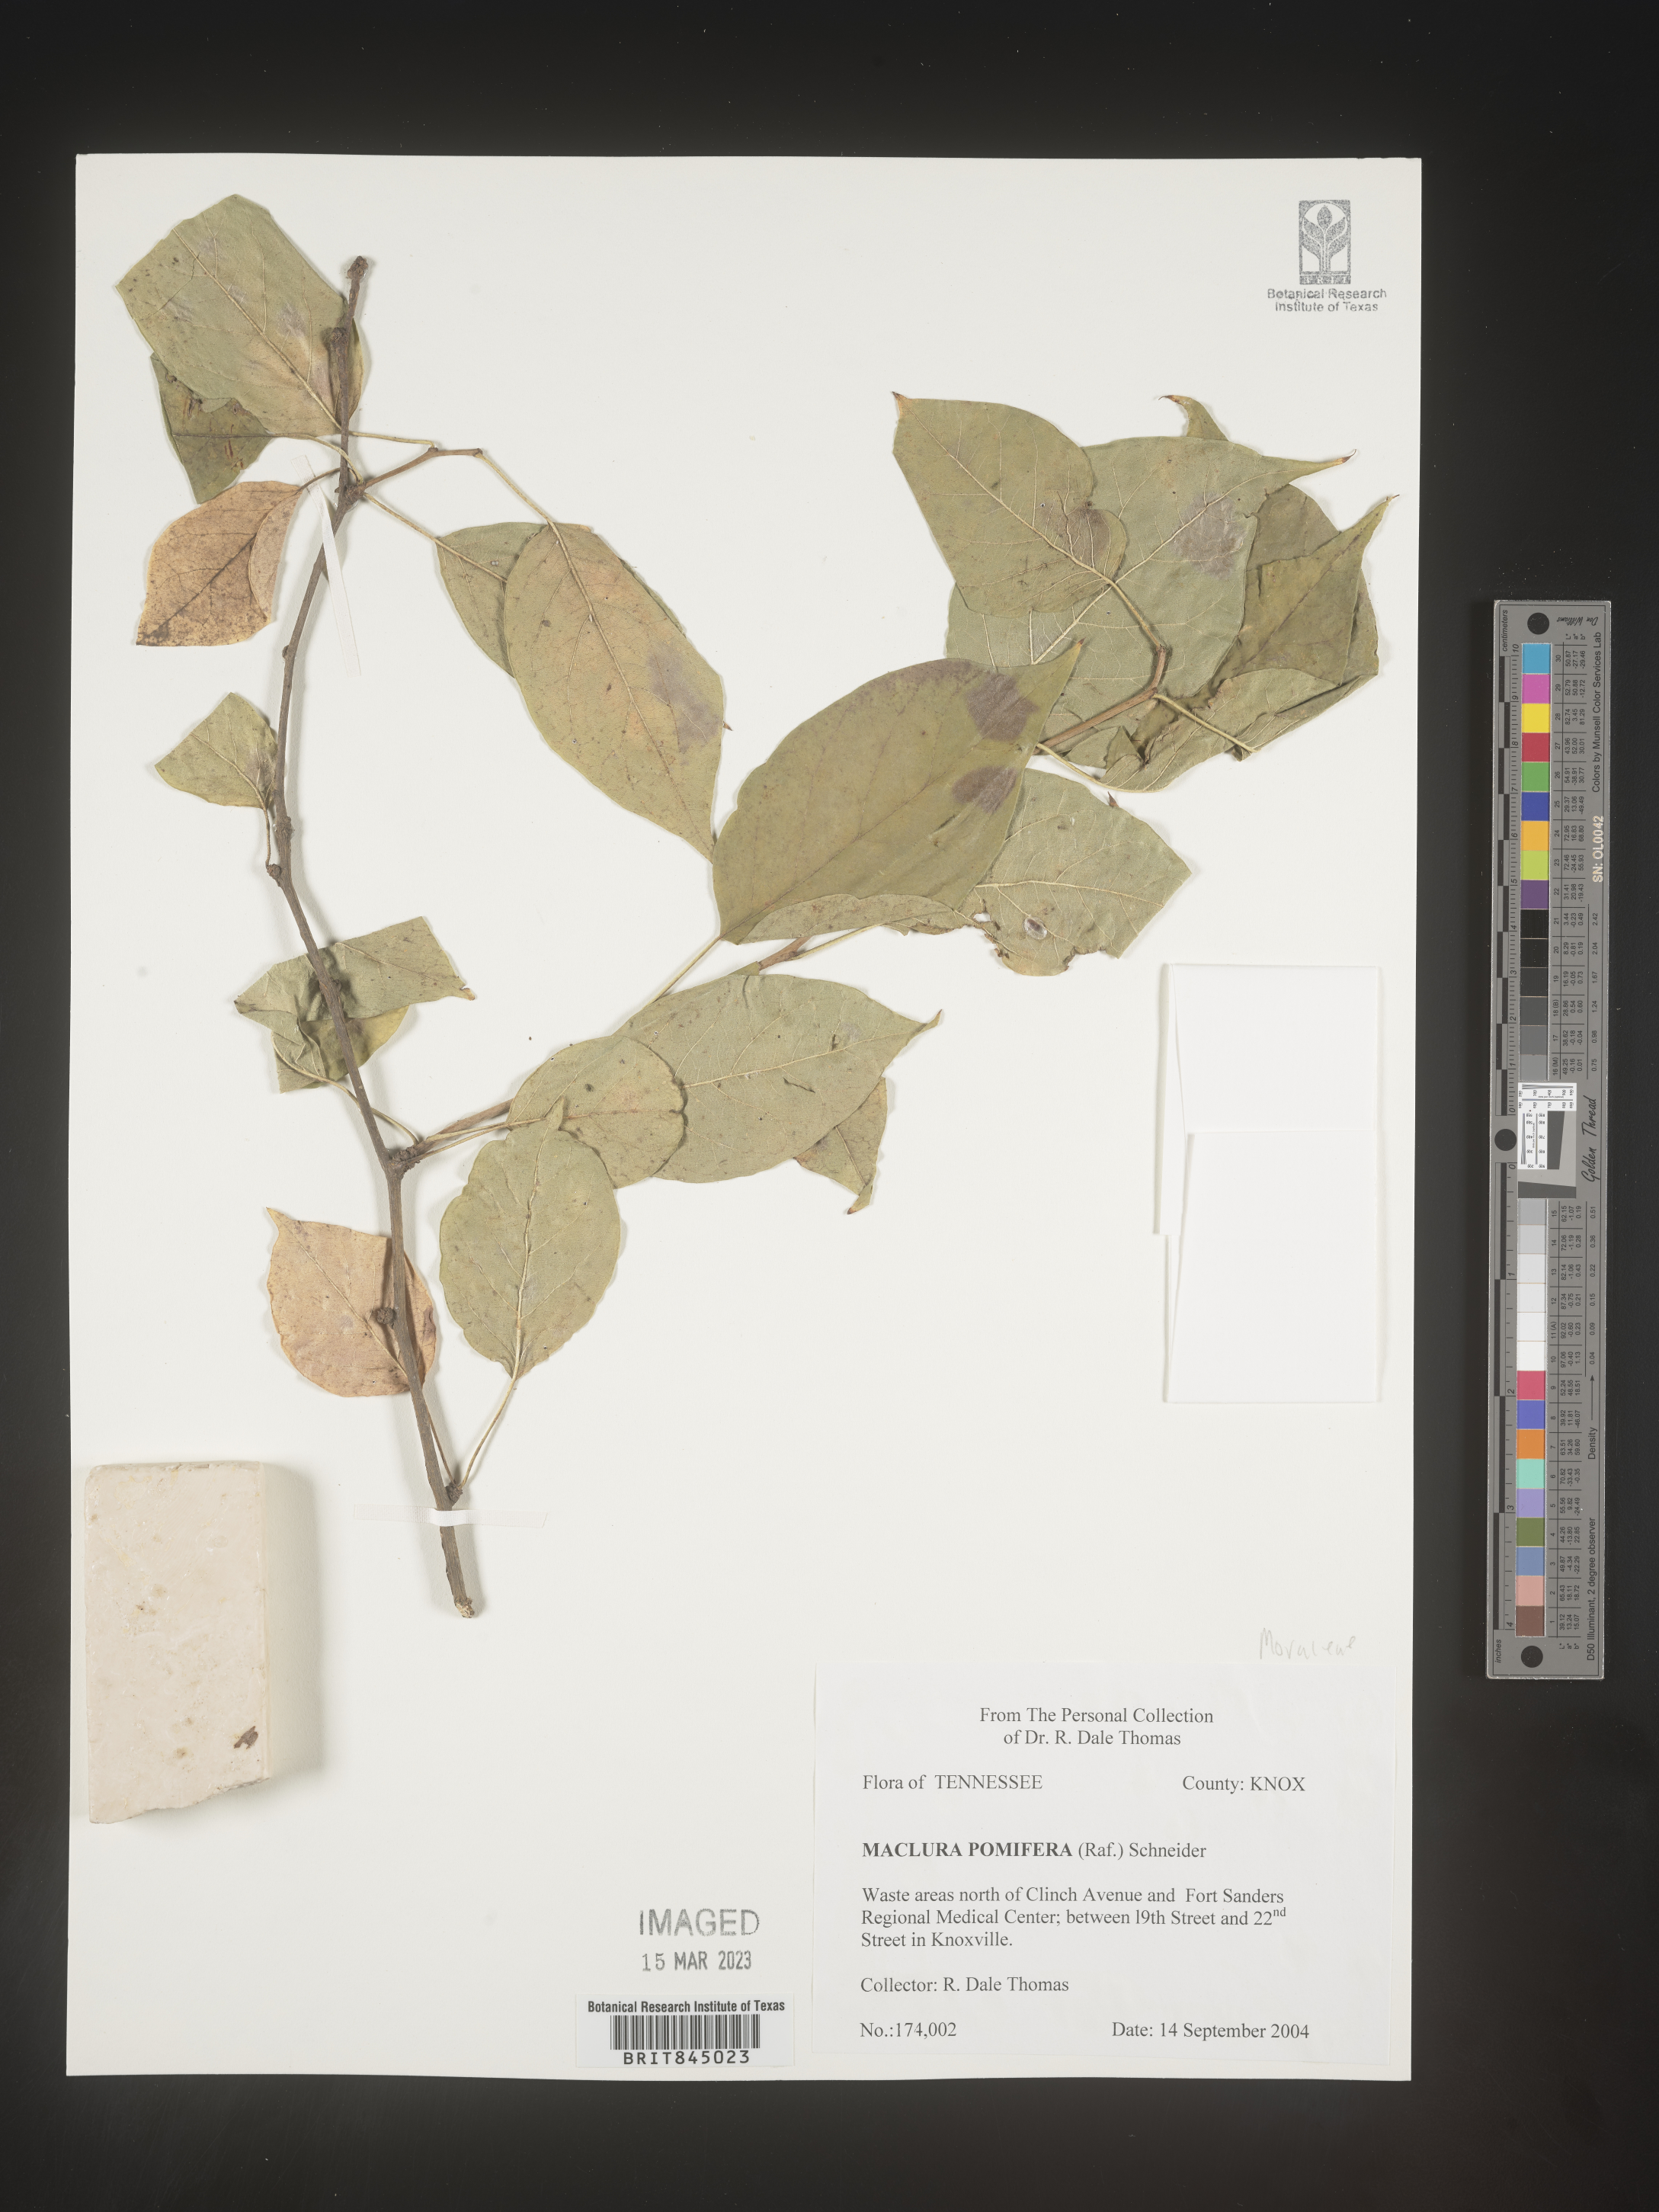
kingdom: Plantae
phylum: Tracheophyta
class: Magnoliopsida
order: Rosales
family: Moraceae
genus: Maclura
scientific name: Maclura pomifera
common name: Osage-orange
